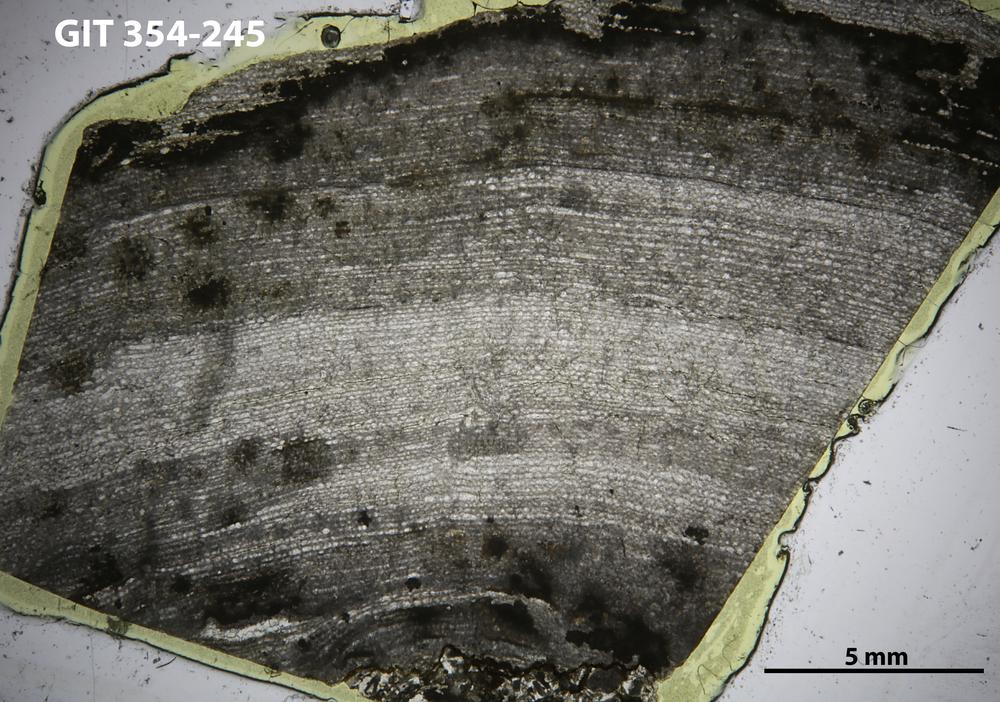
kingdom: Animalia
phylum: Porifera
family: Clathrodictyidae
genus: Clathrodictyon
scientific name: Clathrodictyon kudriavzevi
